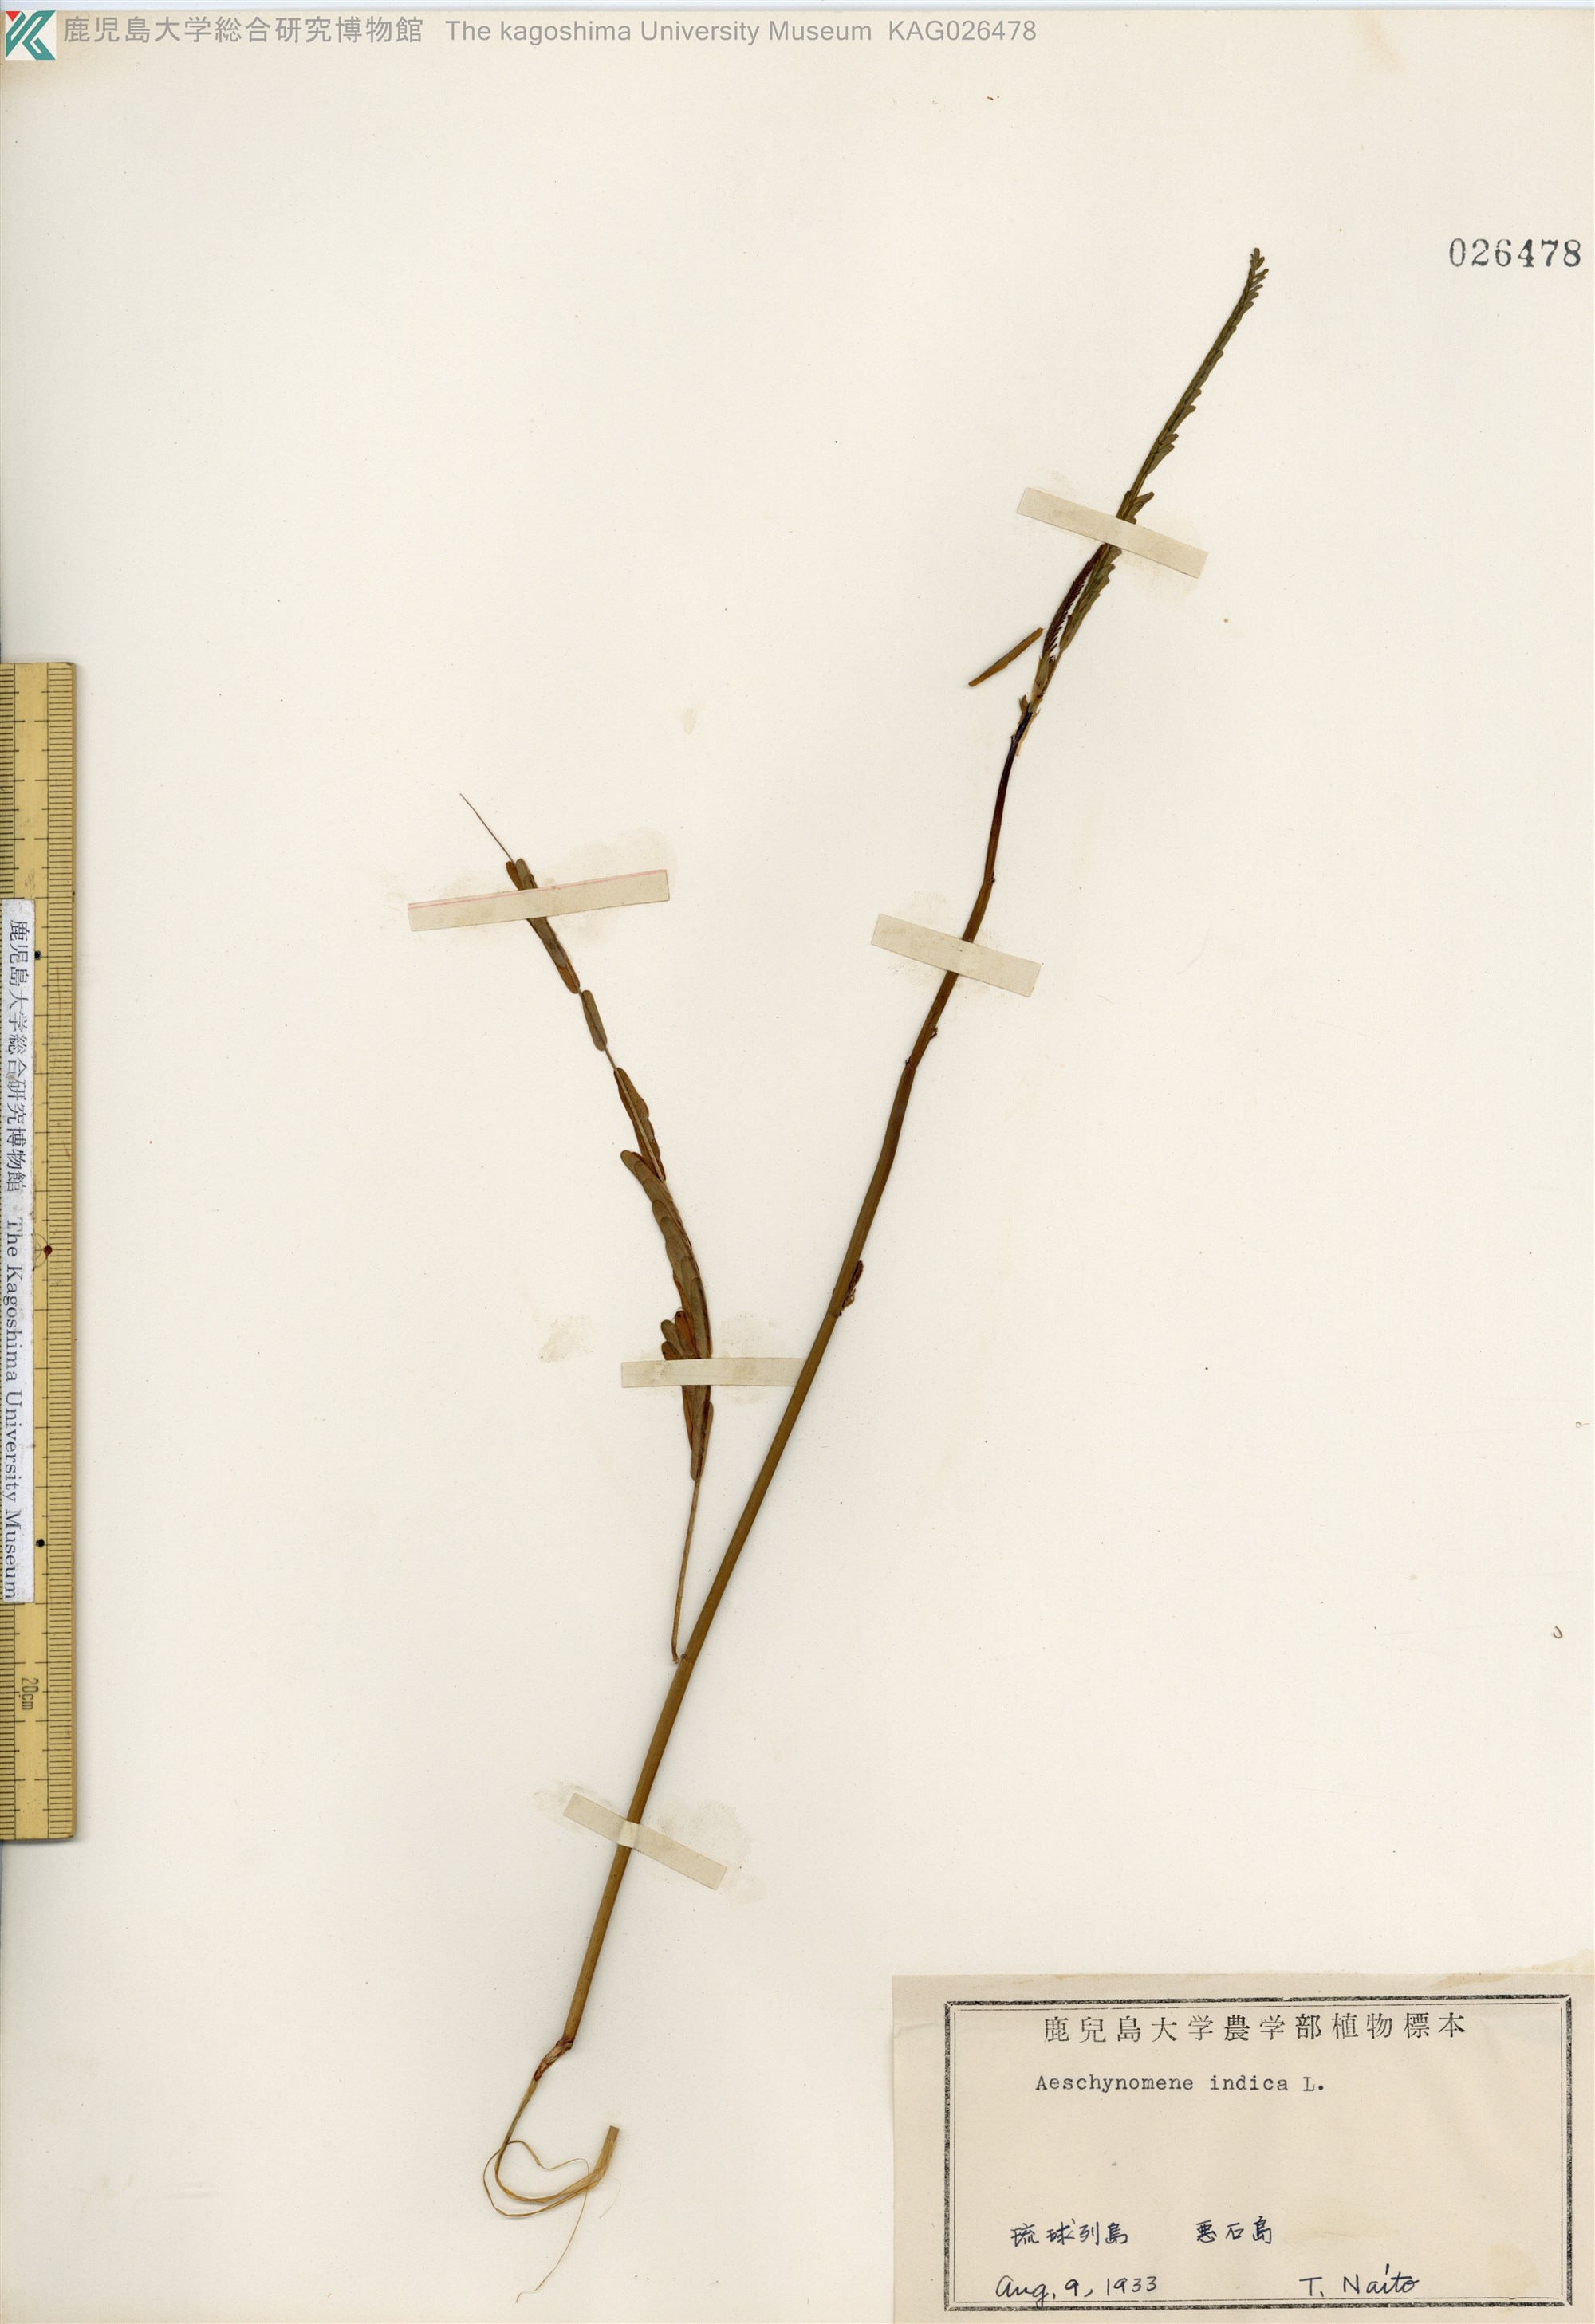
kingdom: Plantae
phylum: Tracheophyta
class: Magnoliopsida
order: Fabales
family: Fabaceae
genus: Aeschynomene
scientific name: Aeschynomene indica
